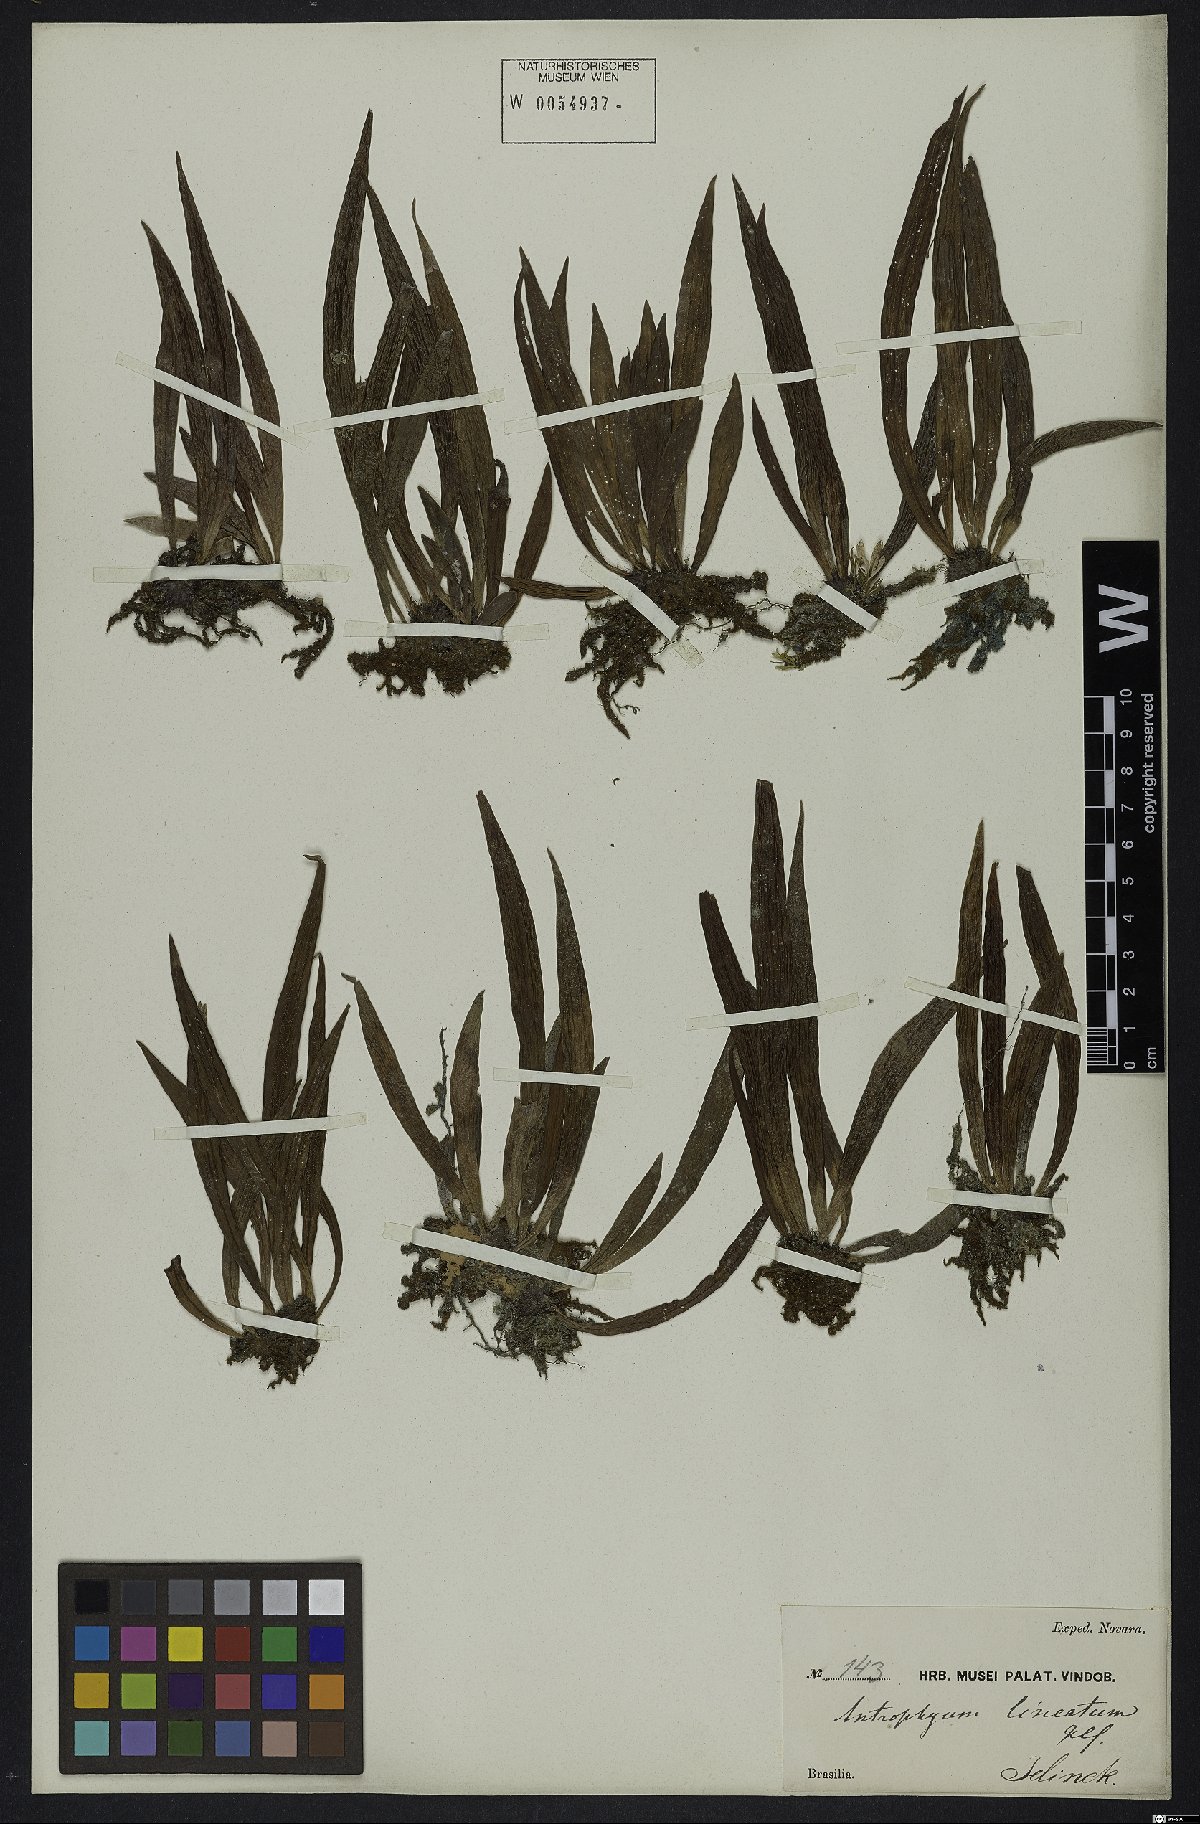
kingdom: Plantae
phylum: Tracheophyta
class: Polypodiopsida
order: Polypodiales
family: Pteridaceae
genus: Polytaenium
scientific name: Polytaenium lineatum
